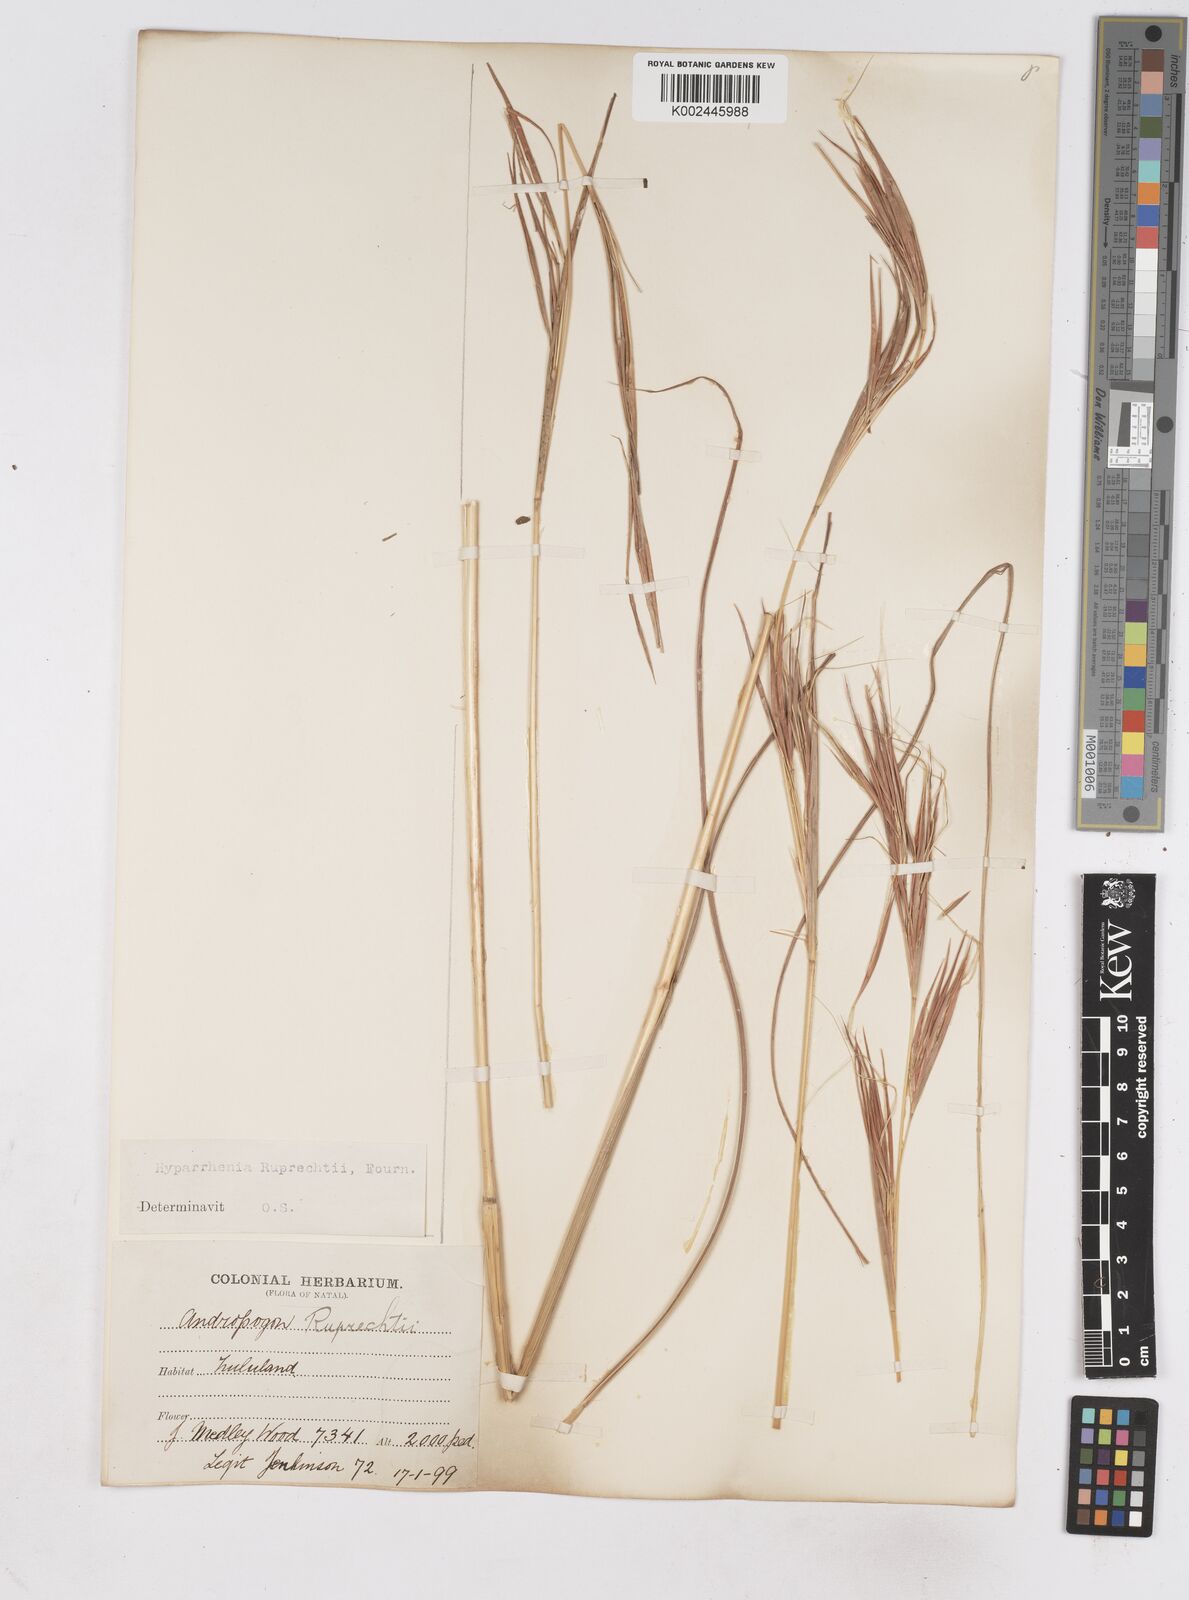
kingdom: Plantae
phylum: Tracheophyta
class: Liliopsida
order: Poales
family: Poaceae
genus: Hyperthelia
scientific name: Hyperthelia dissoluta
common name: Yellow thatching grass
